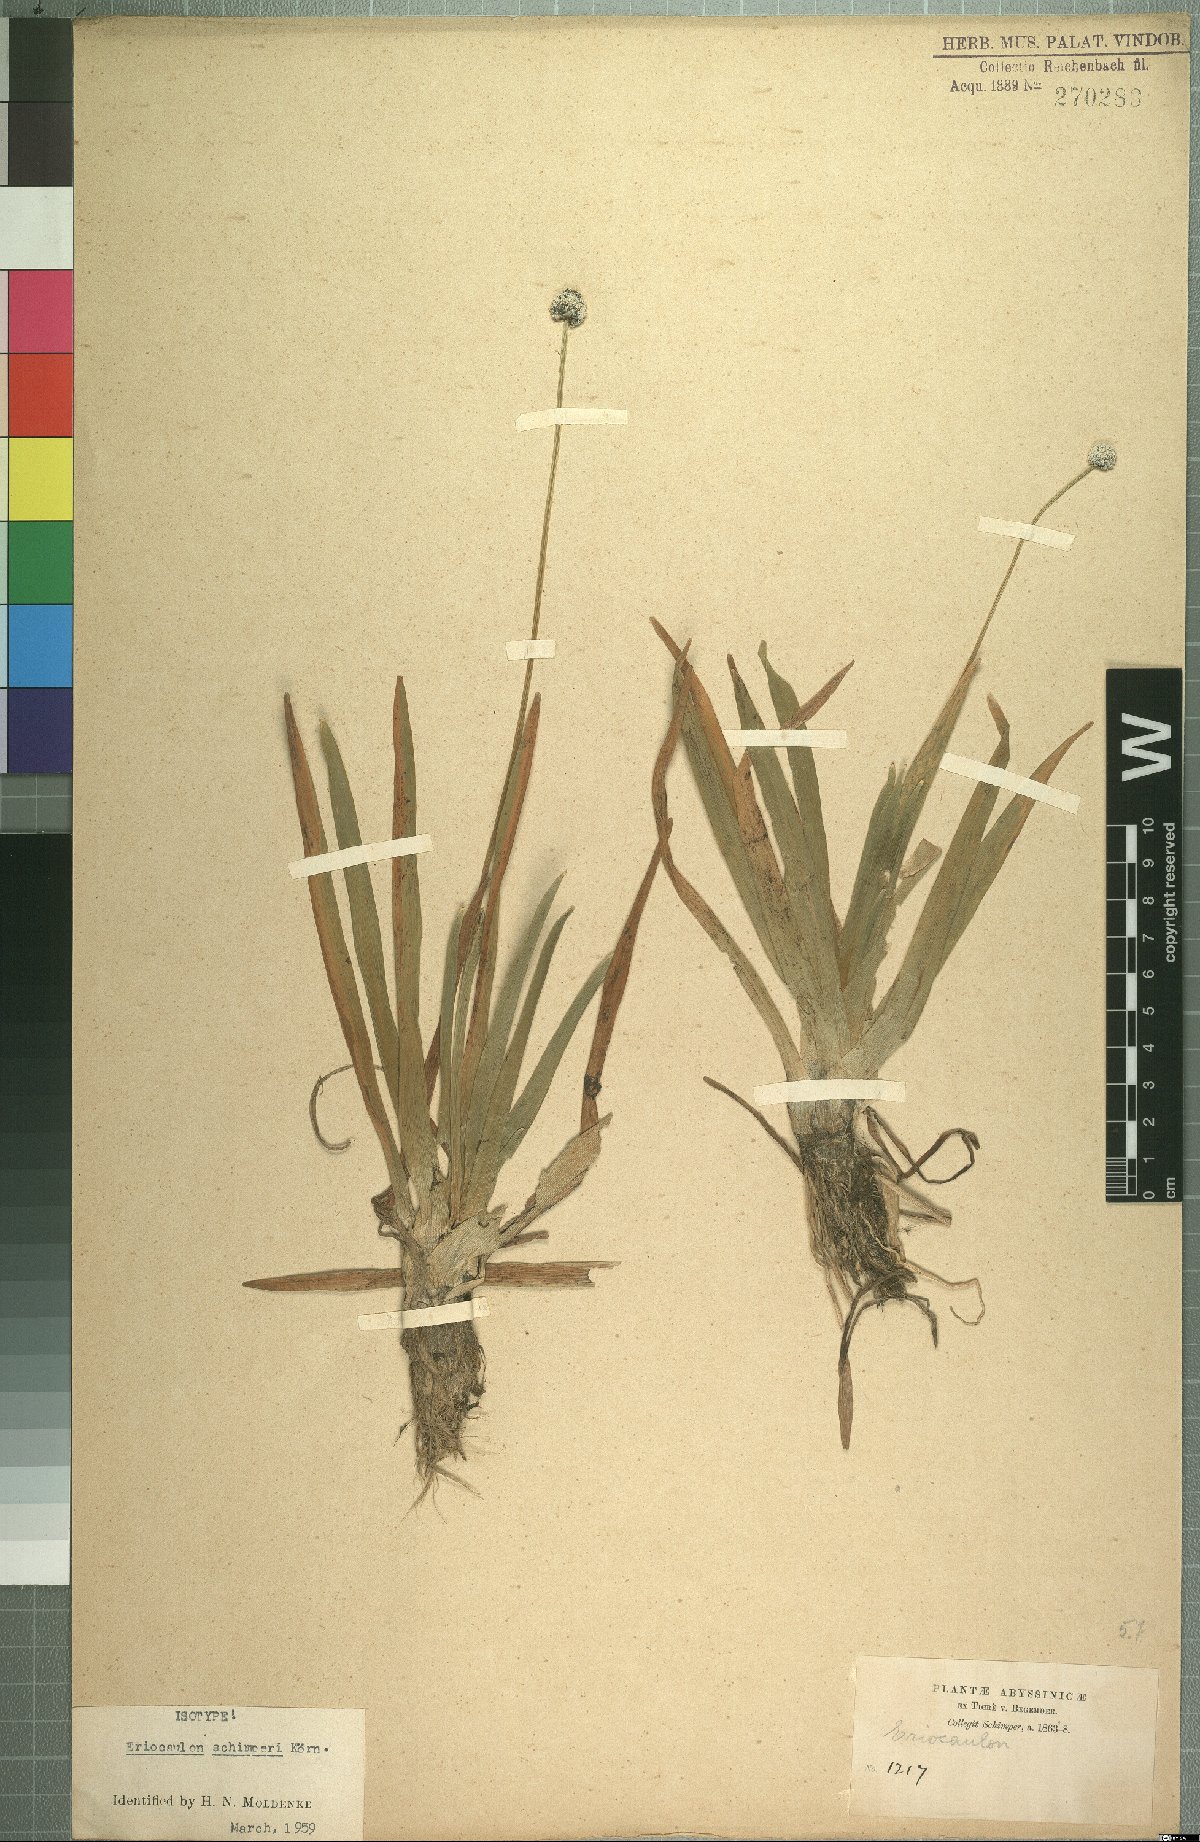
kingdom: Plantae
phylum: Tracheophyta
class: Liliopsida
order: Poales
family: Eriocaulaceae
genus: Eriocaulon
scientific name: Eriocaulon schimperi
